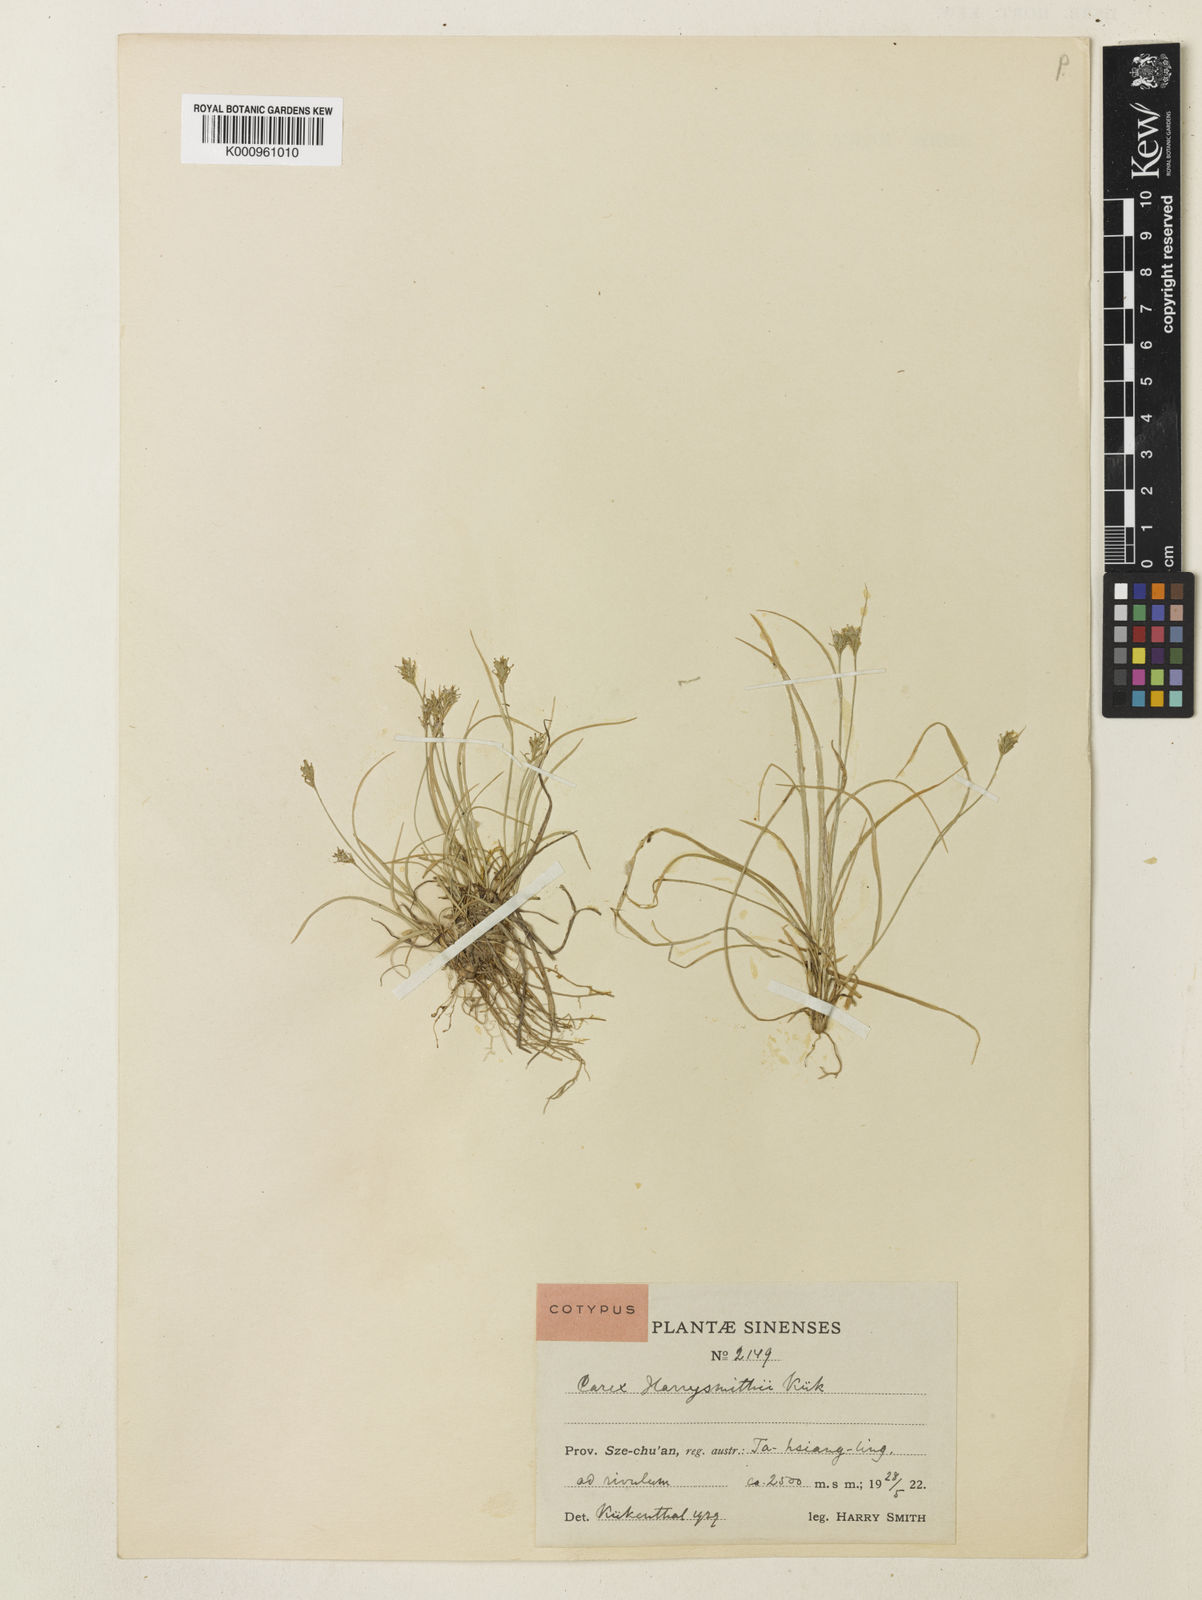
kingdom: Plantae
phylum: Tracheophyta
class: Liliopsida
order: Poales
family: Cyperaceae
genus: Carex
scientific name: Carex
